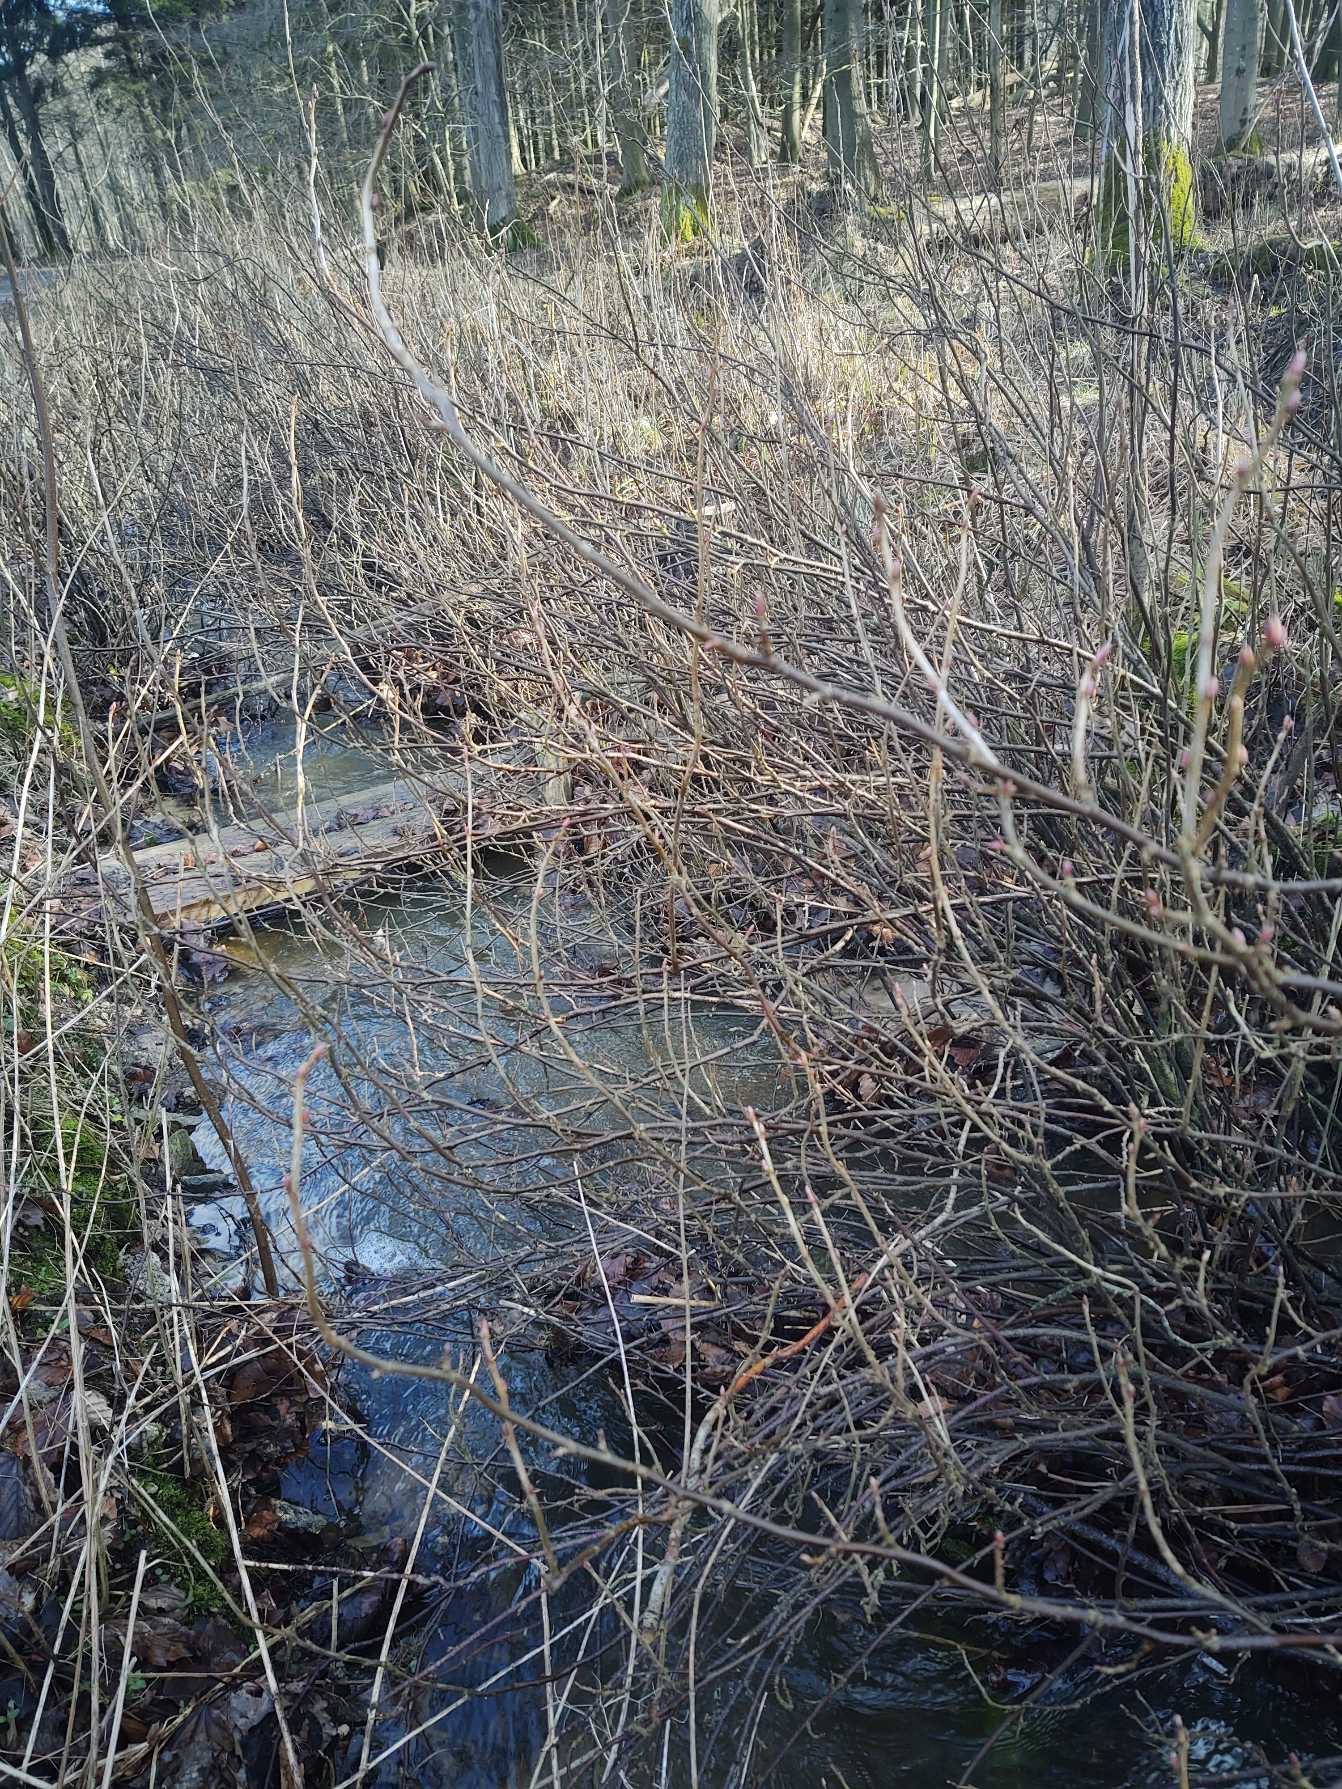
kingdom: Plantae
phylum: Tracheophyta
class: Magnoliopsida
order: Saxifragales
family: Grossulariaceae
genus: Ribes
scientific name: Ribes nigrum
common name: Solbær
